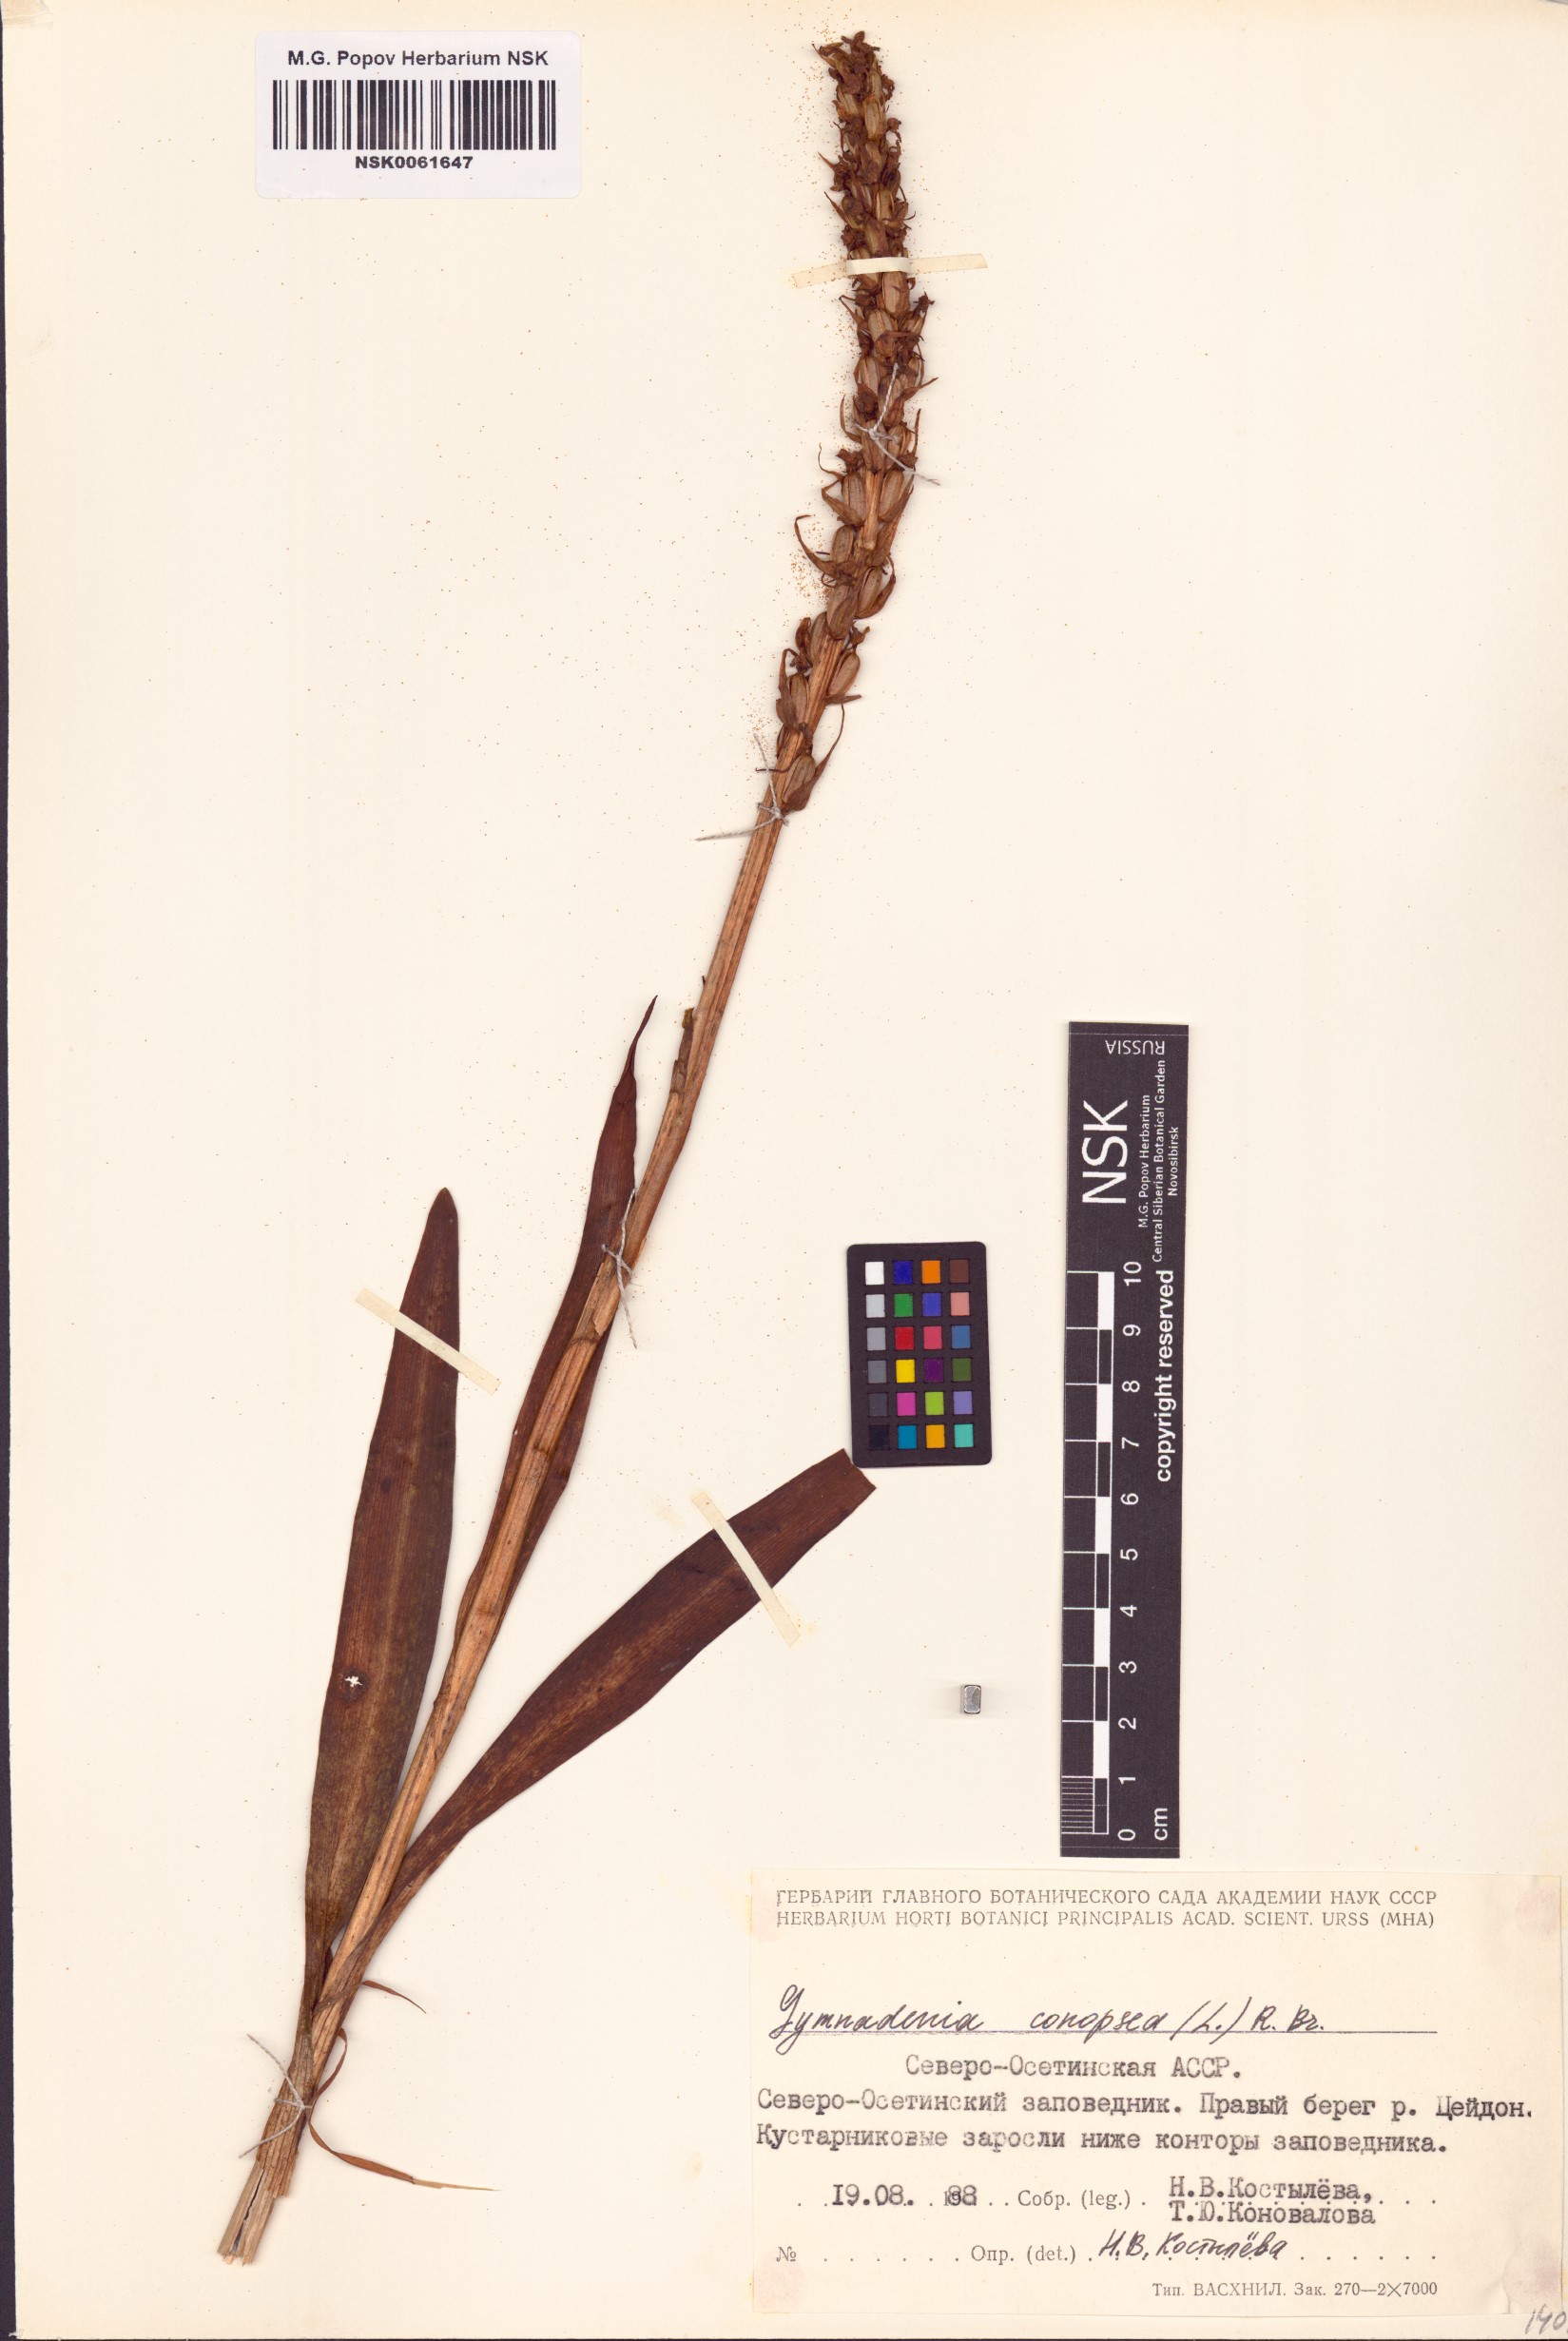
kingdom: Plantae
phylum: Tracheophyta
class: Liliopsida
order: Asparagales
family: Orchidaceae
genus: Gymnadenia
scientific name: Gymnadenia conopsea
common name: Fragrant orchid
